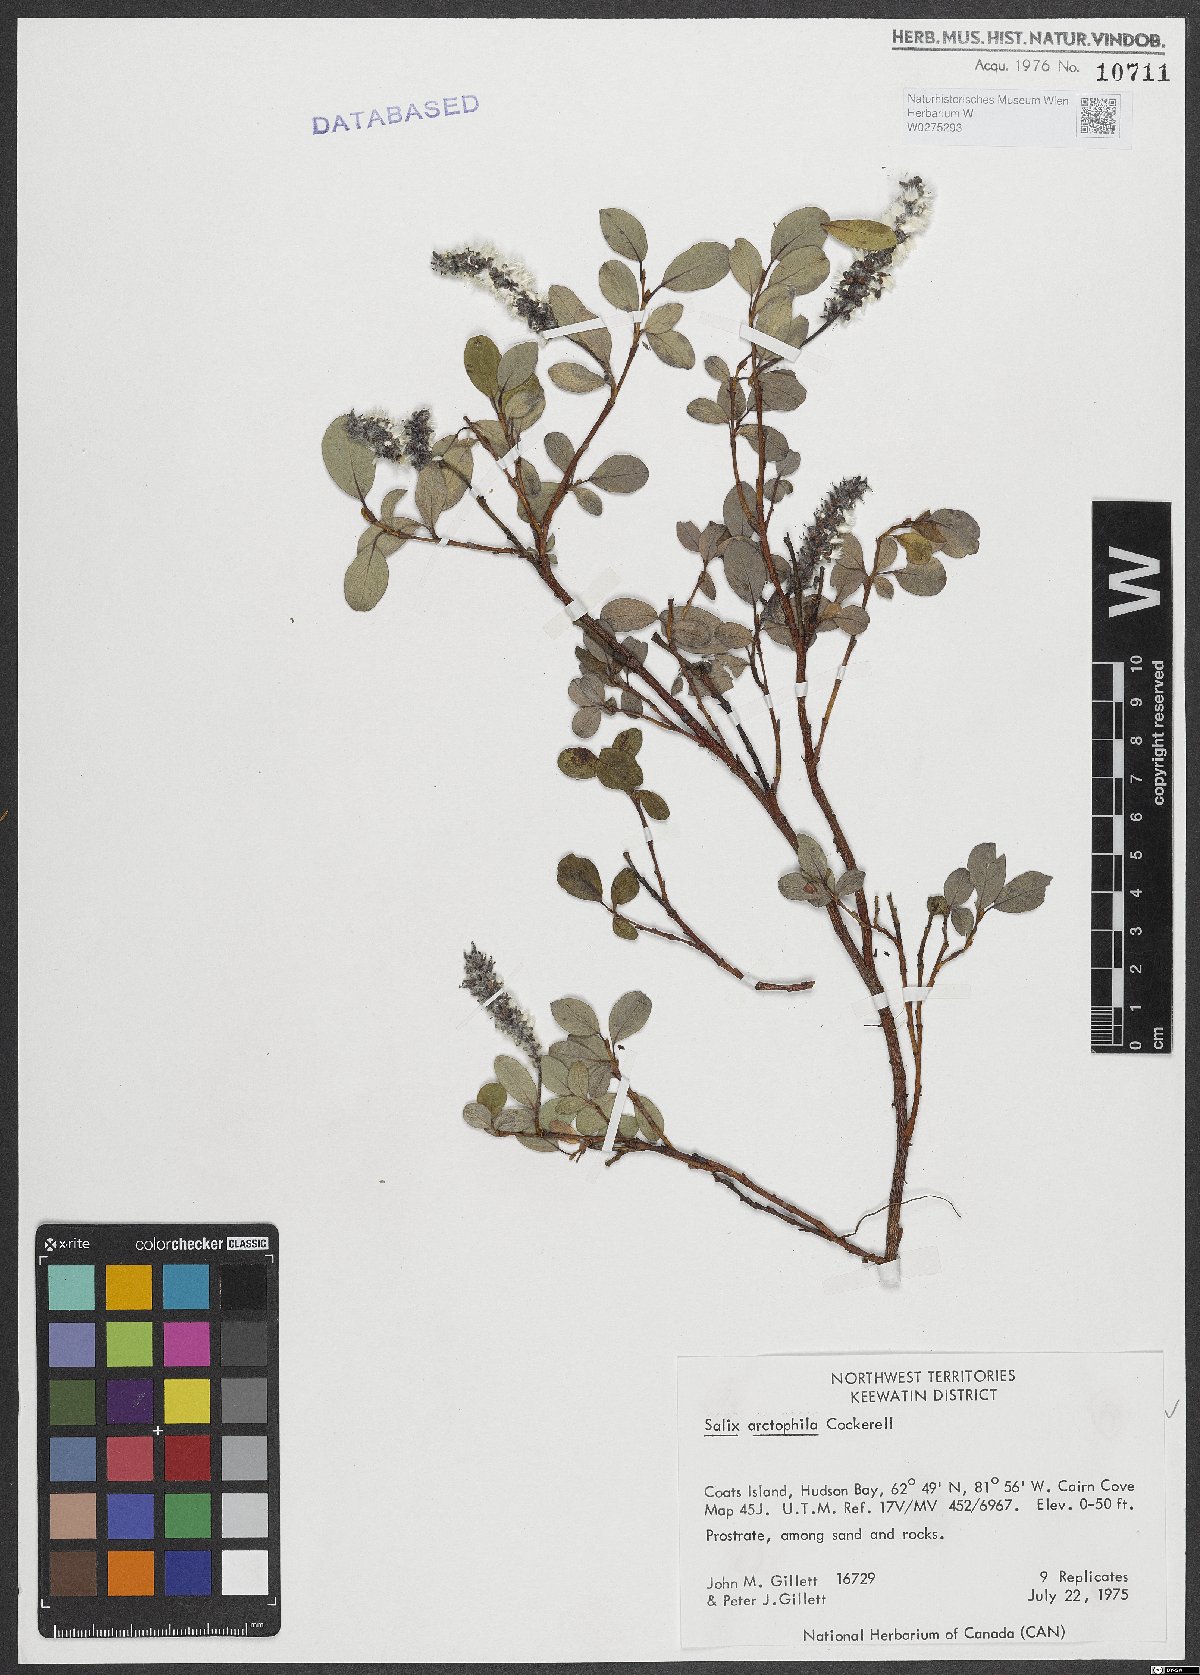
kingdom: Plantae
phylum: Tracheophyta
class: Magnoliopsida
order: Malpighiales
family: Salicaceae
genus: Salix
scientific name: Salix arctophila
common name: Greenland willow
